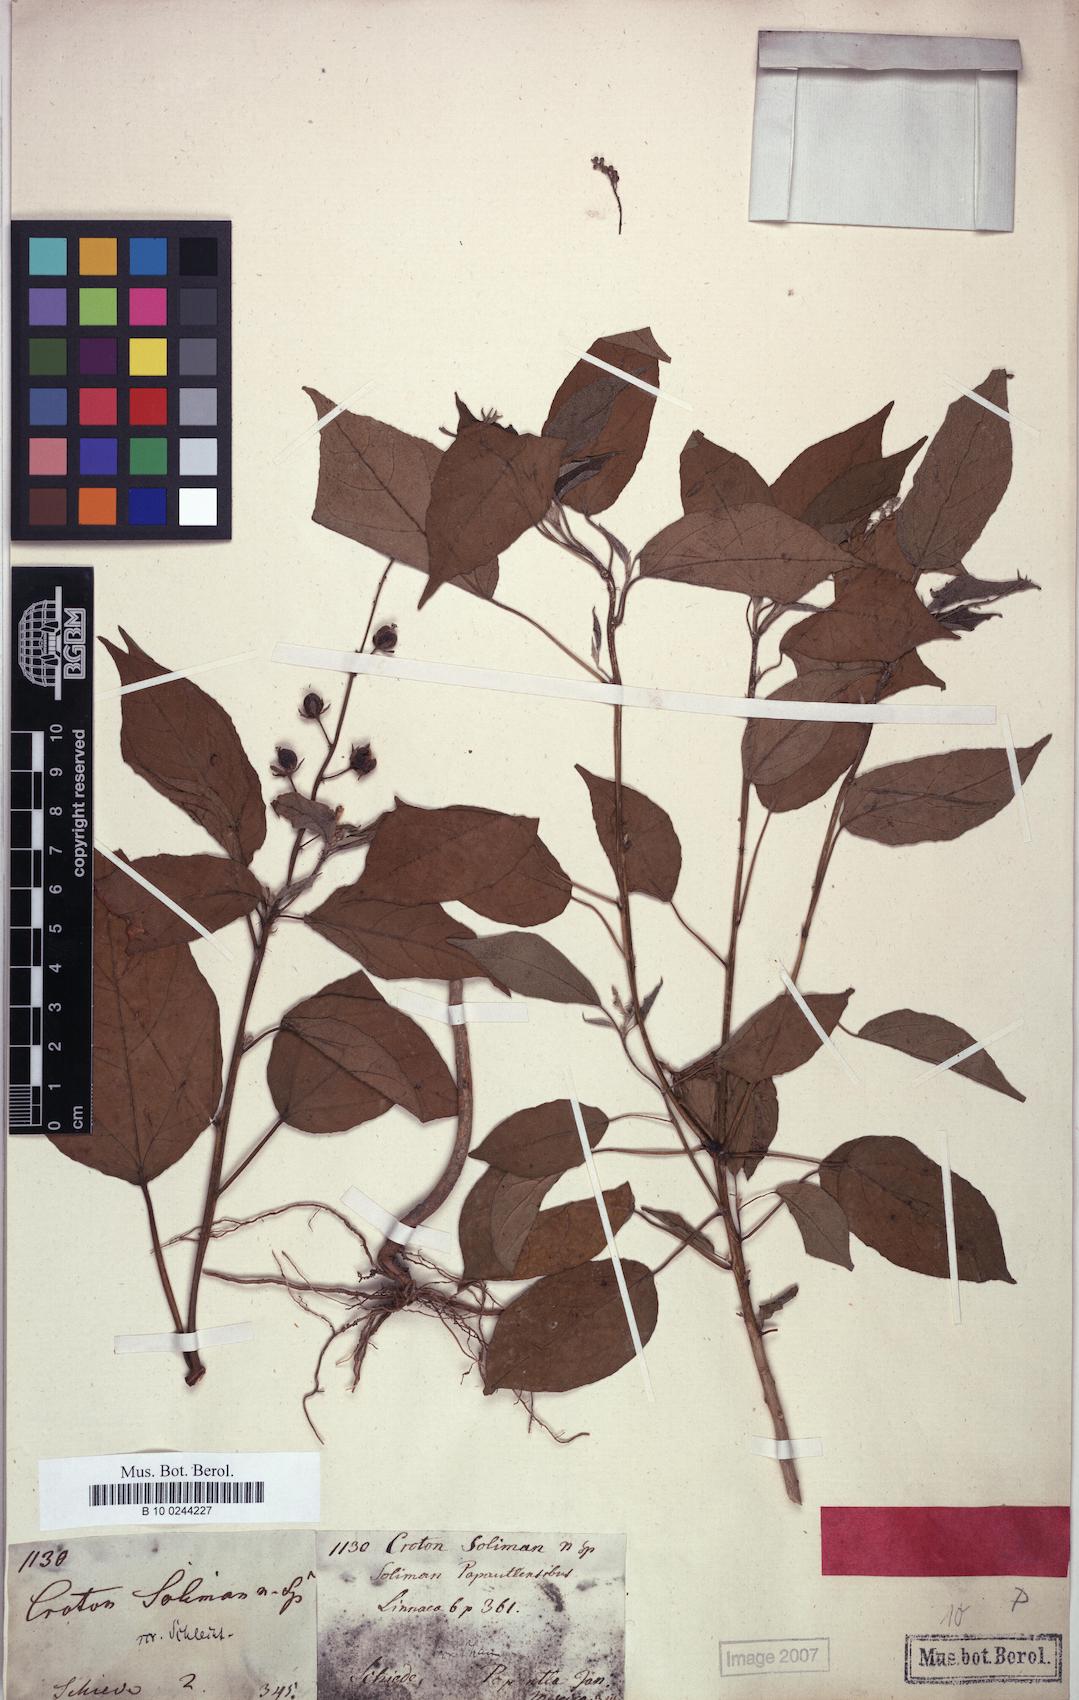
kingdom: Plantae
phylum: Tracheophyta
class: Magnoliopsida
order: Malpighiales
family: Euphorbiaceae
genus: Croton
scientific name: Croton soliman
